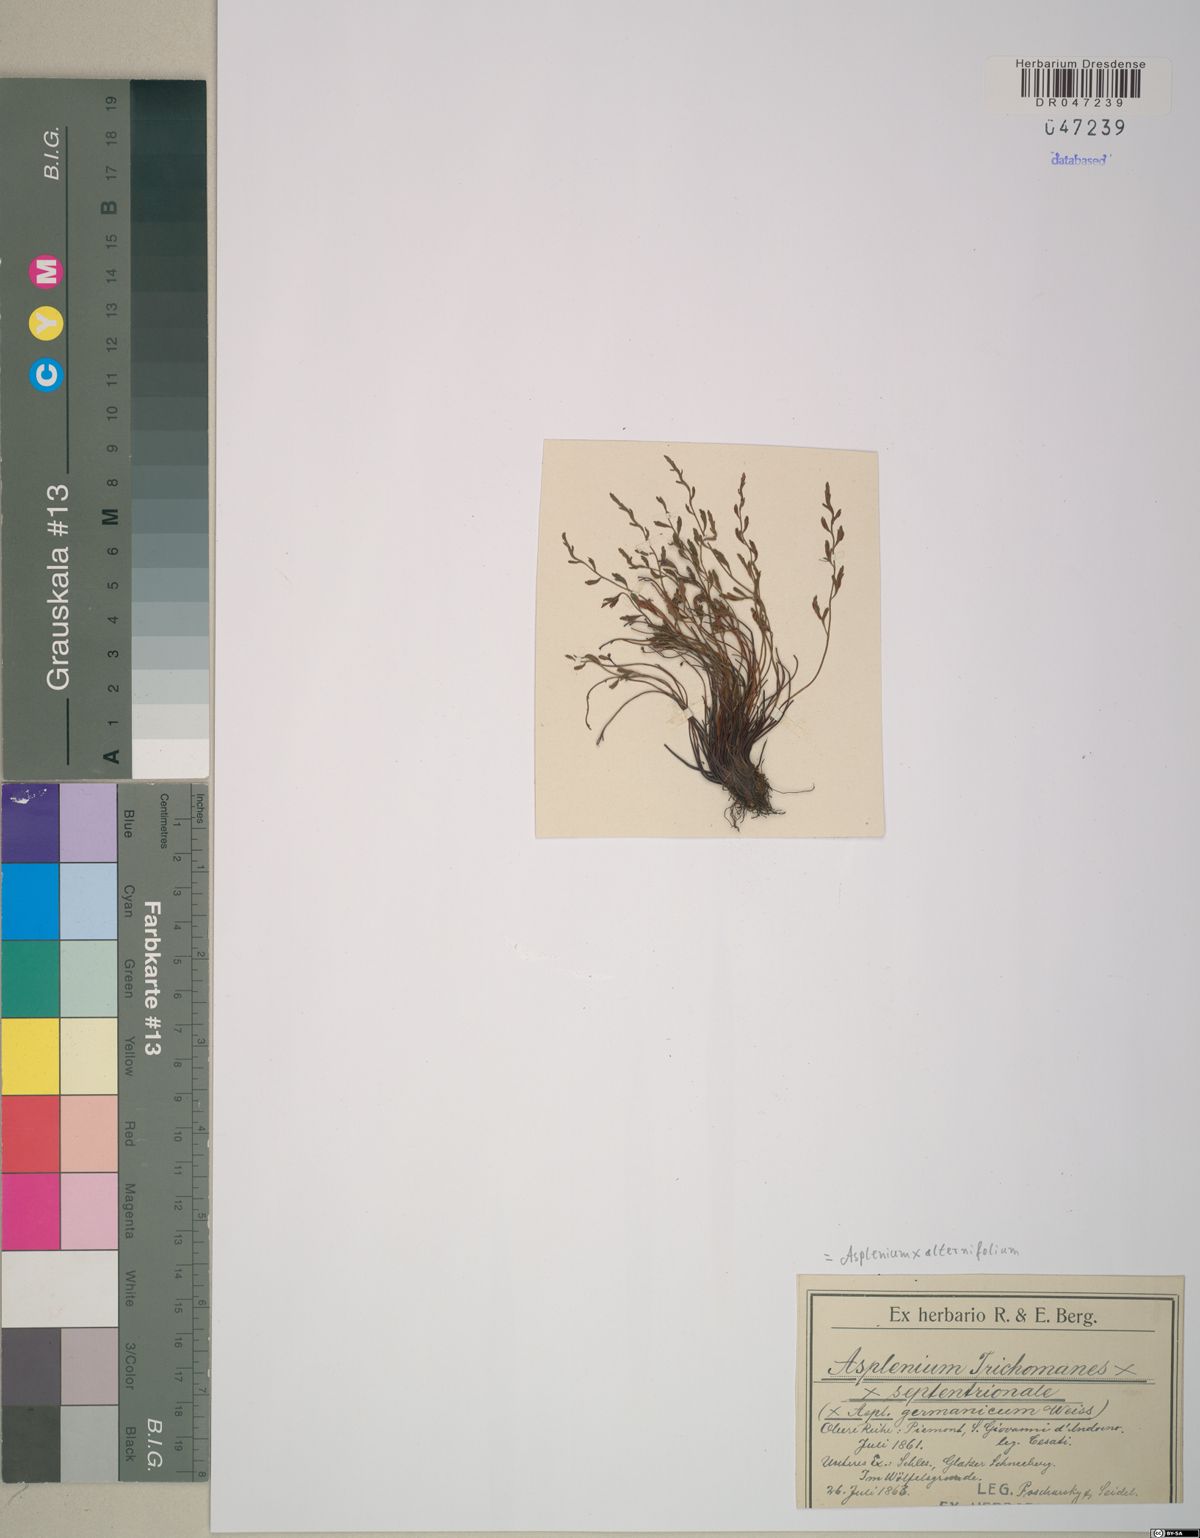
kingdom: Plantae
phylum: Tracheophyta
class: Polypodiopsida
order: Polypodiales
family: Aspleniaceae
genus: Asplenium
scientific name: Asplenium alternifolium
